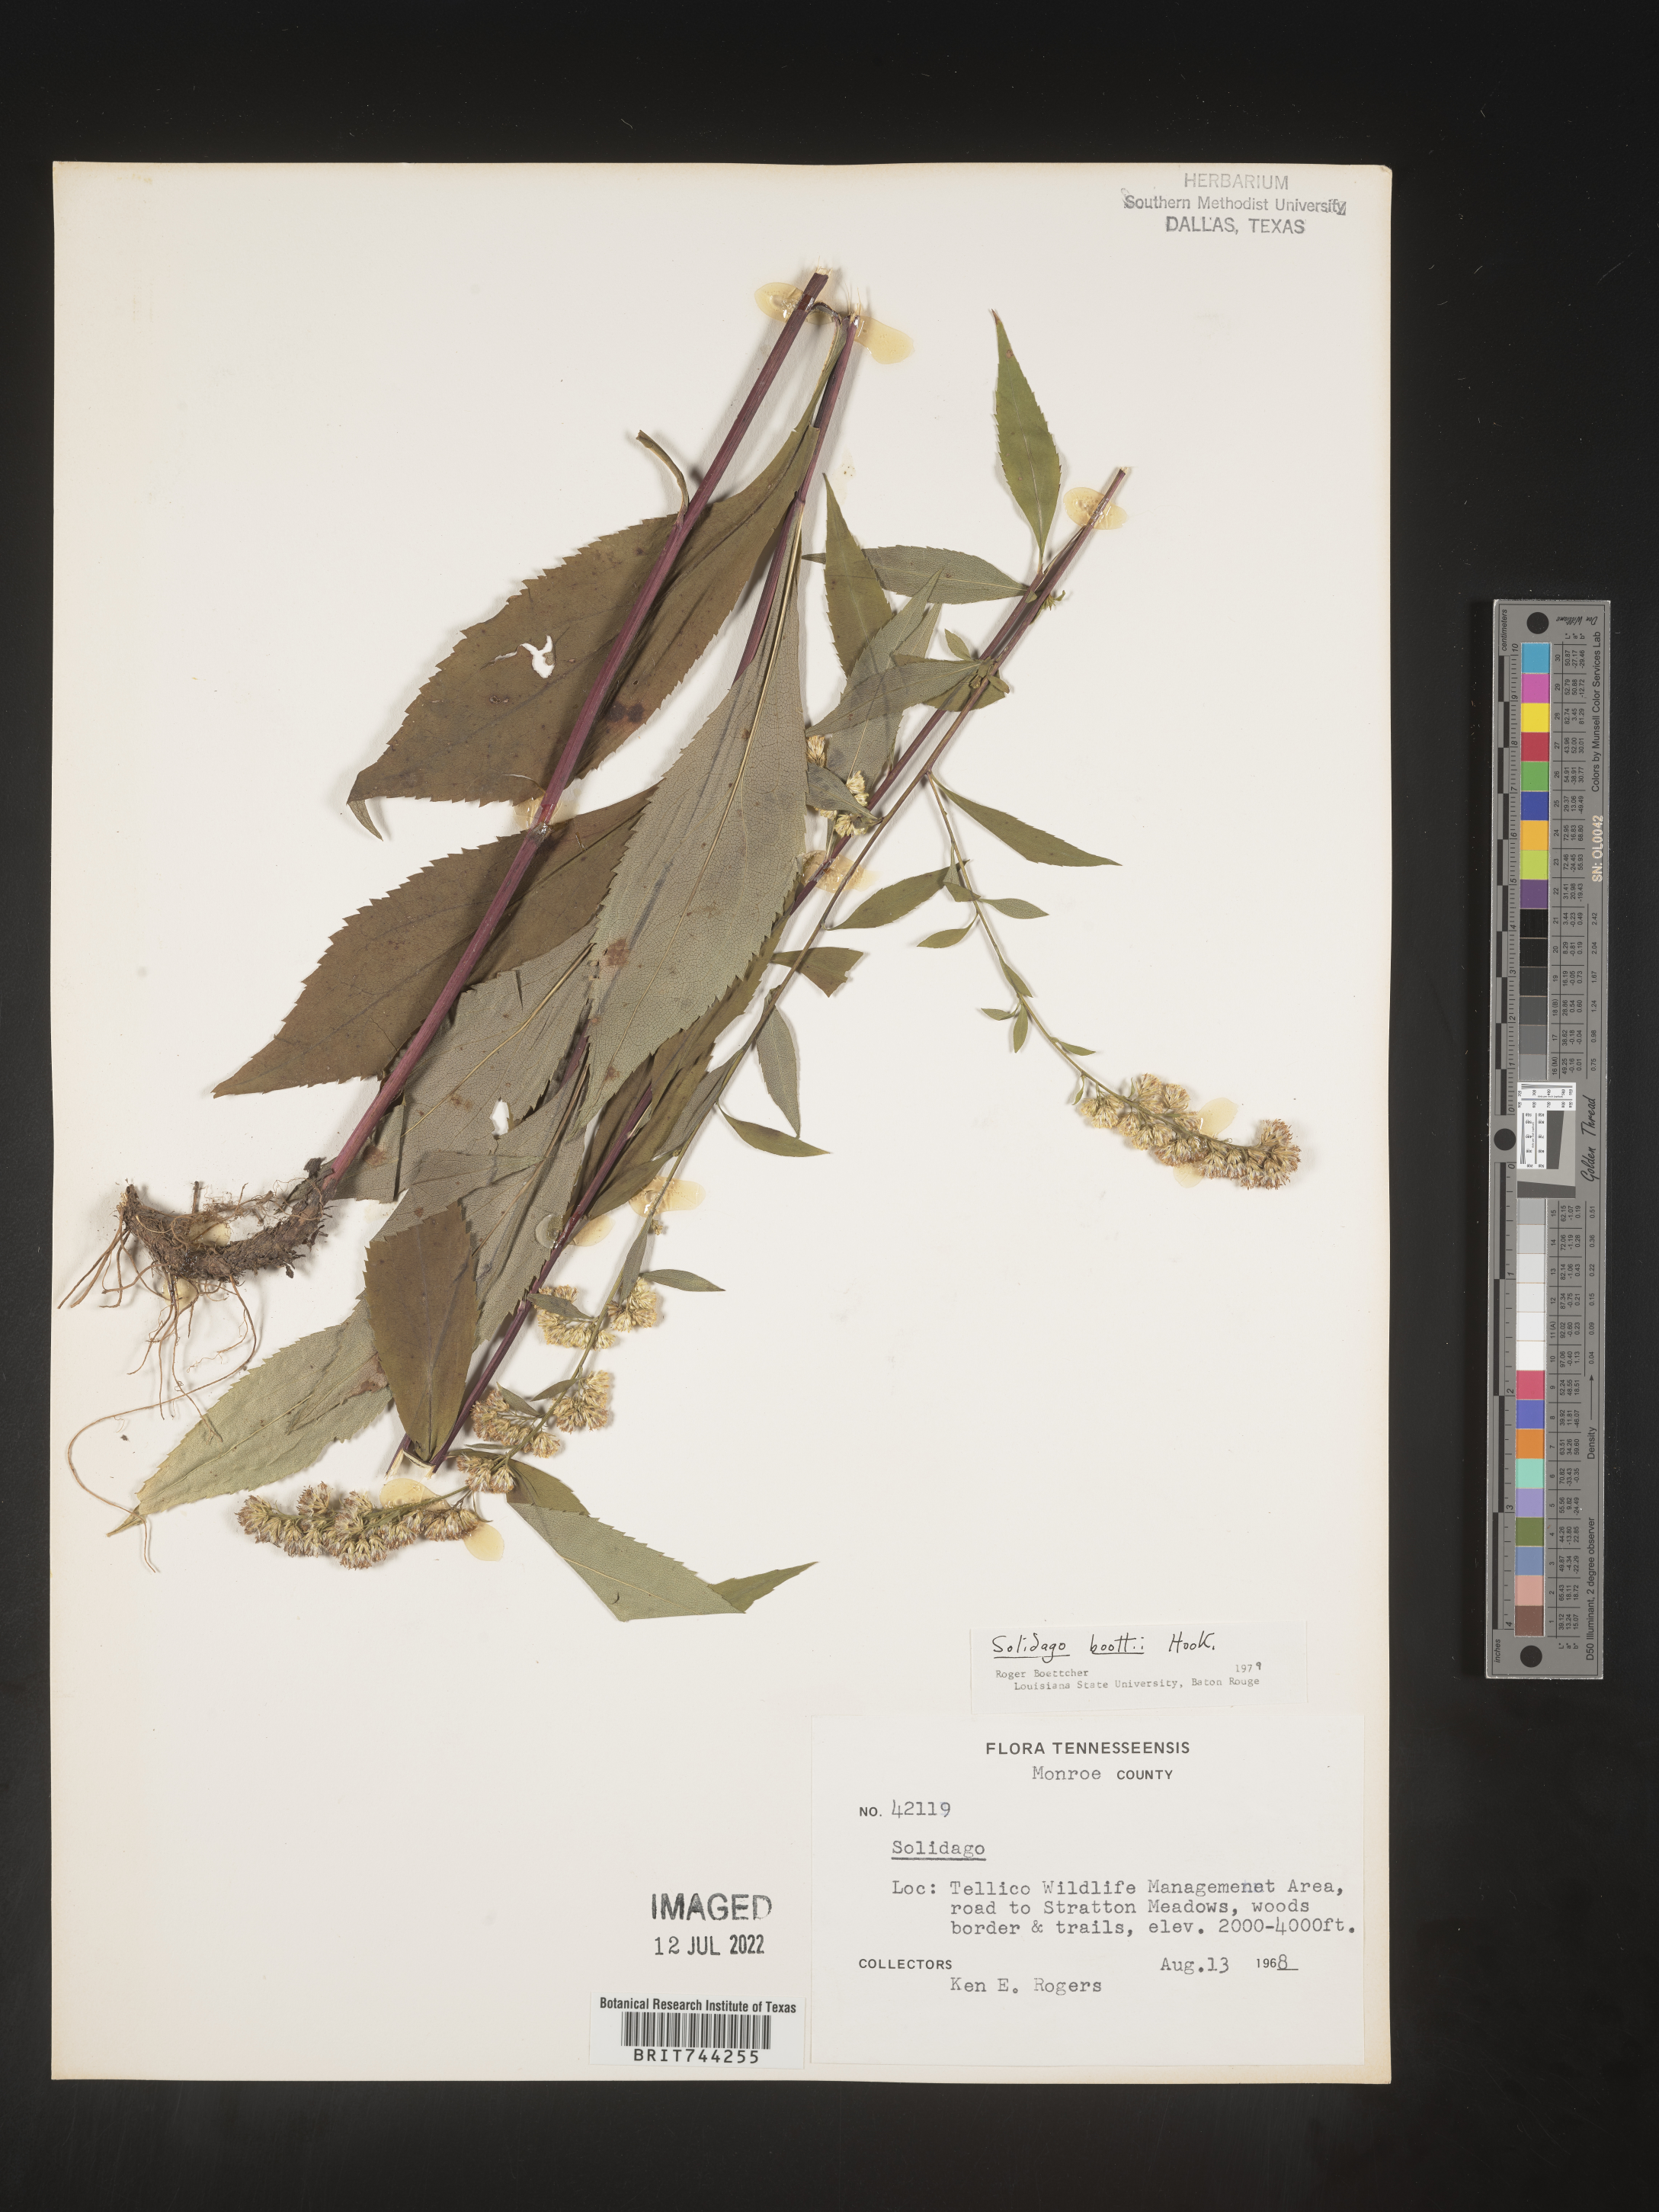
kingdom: Plantae
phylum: Tracheophyta
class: Magnoliopsida
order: Asterales
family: Asteraceae
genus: Solidago
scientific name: Solidago vaseyi
